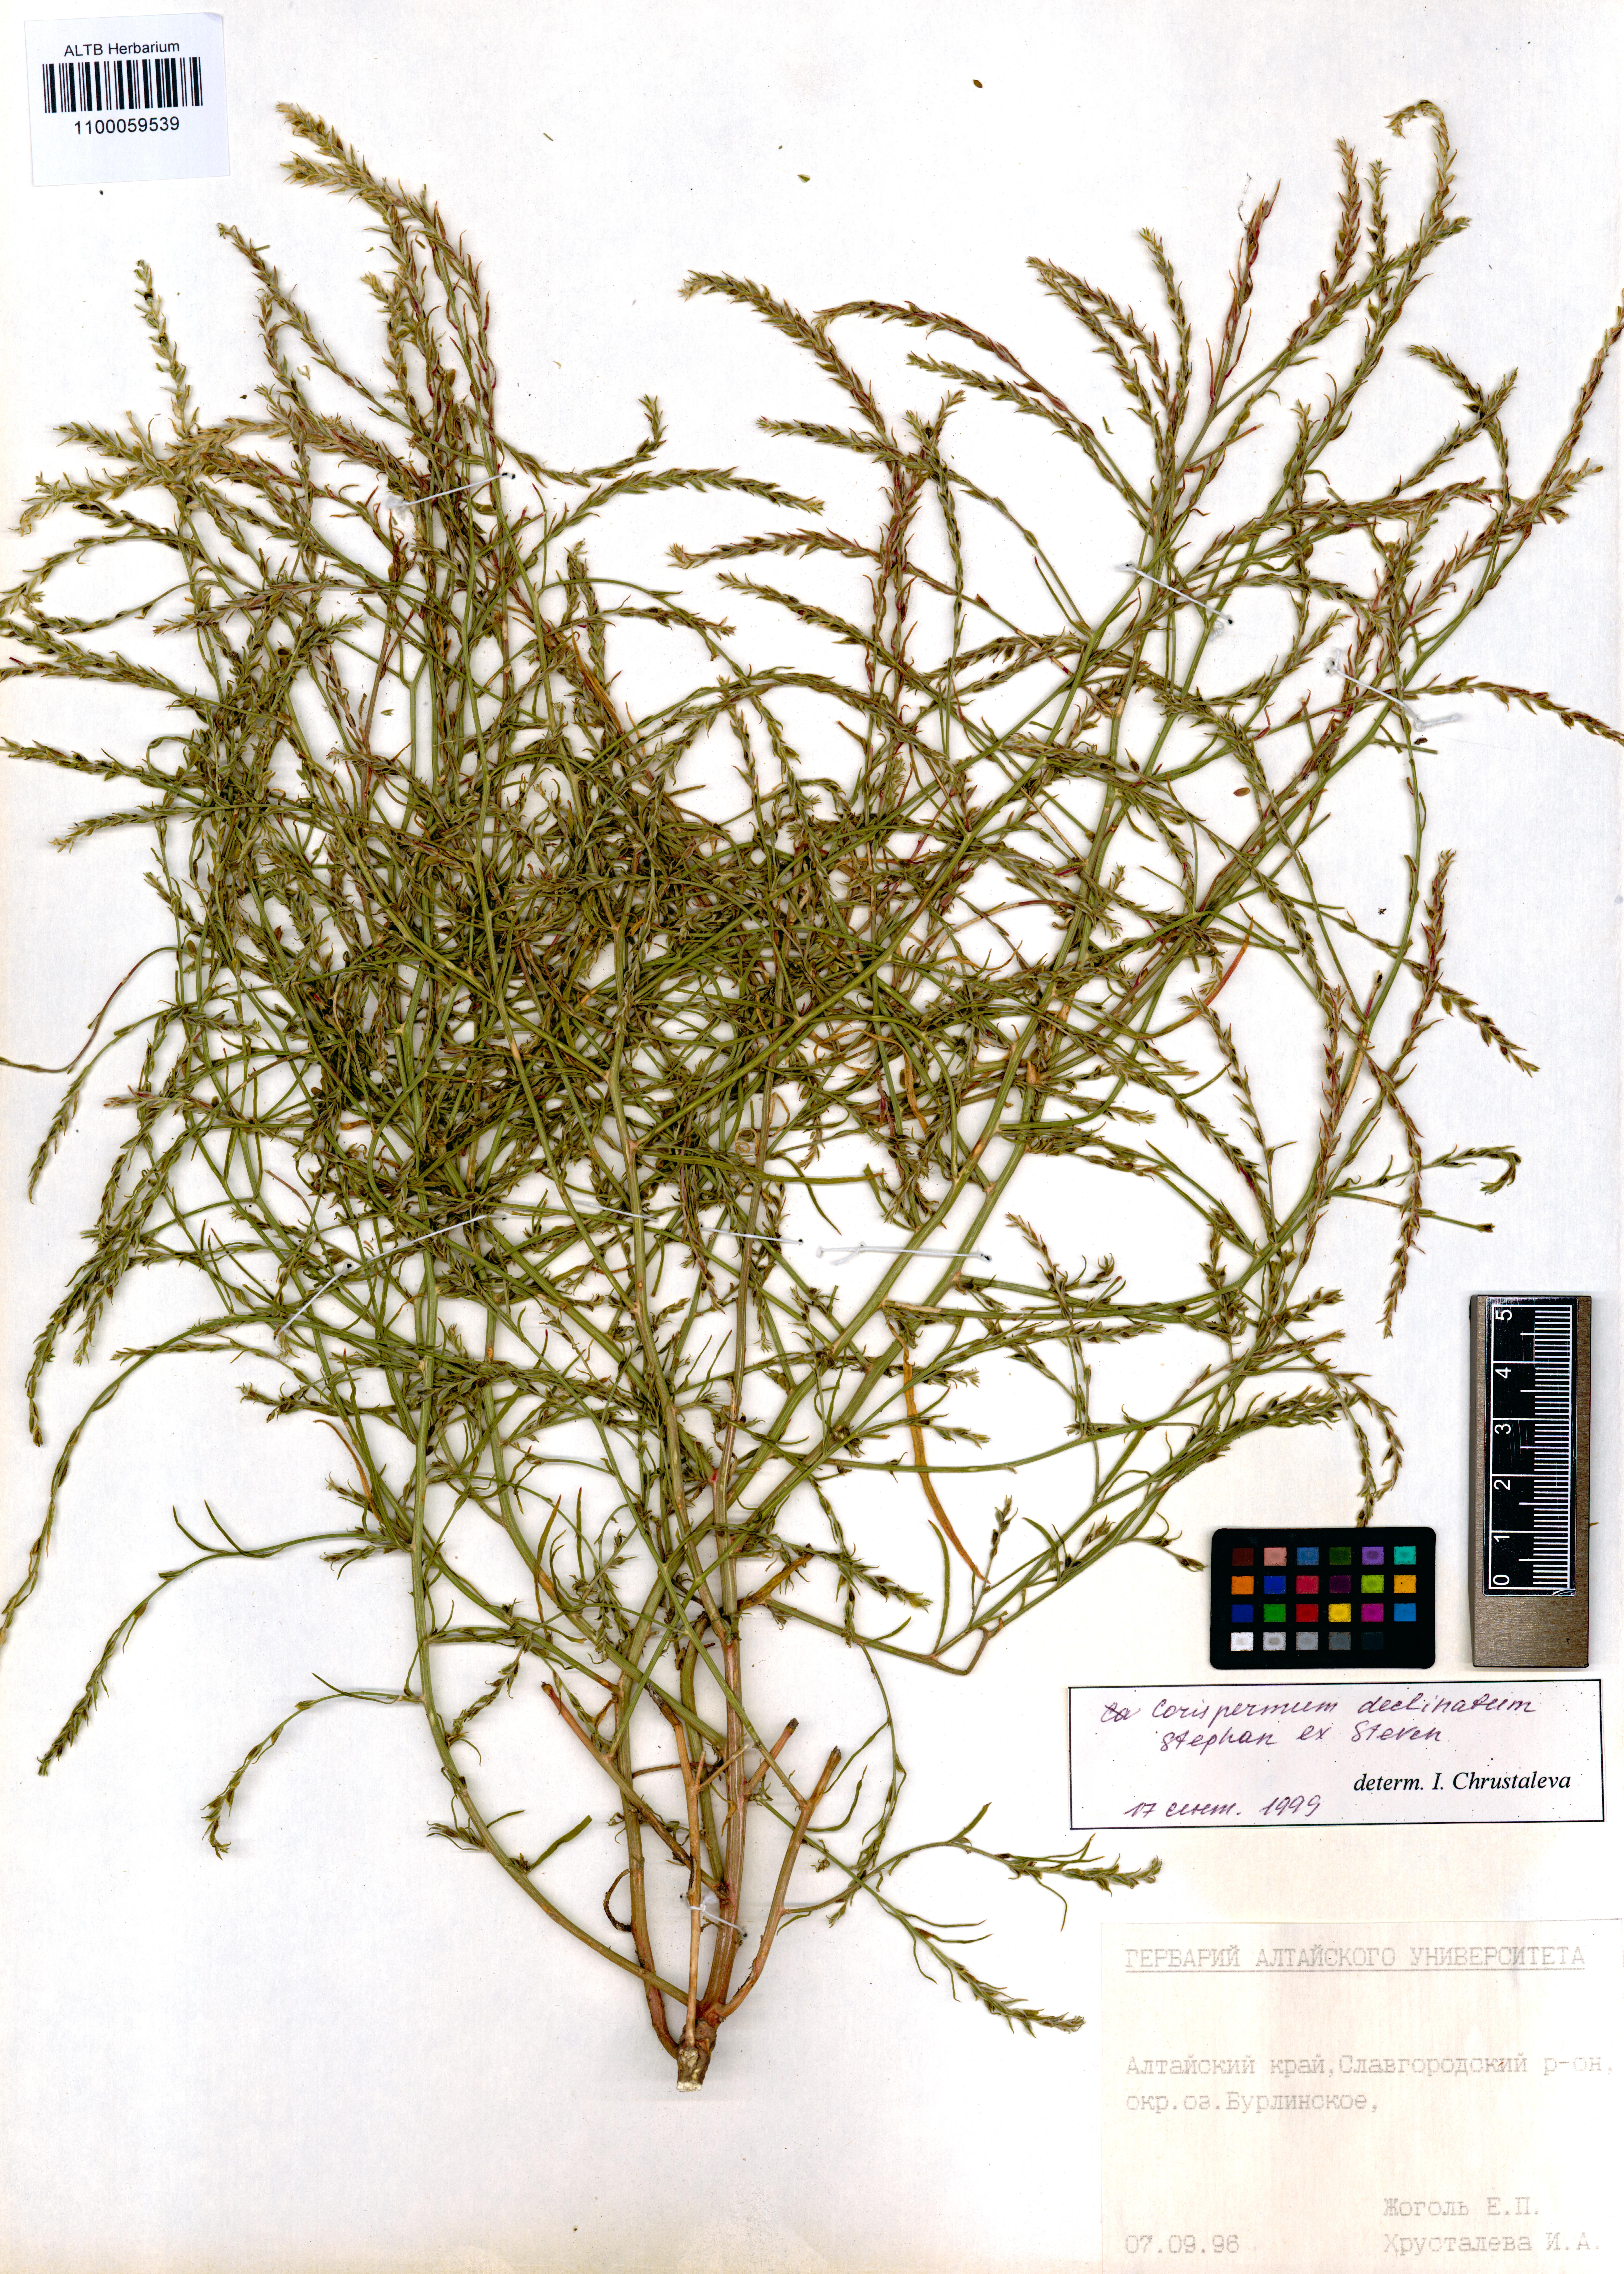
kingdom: Plantae
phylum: Tracheophyta
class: Magnoliopsida
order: Caryophyllales
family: Amaranthaceae
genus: Corispermum
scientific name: Corispermum declinatum
